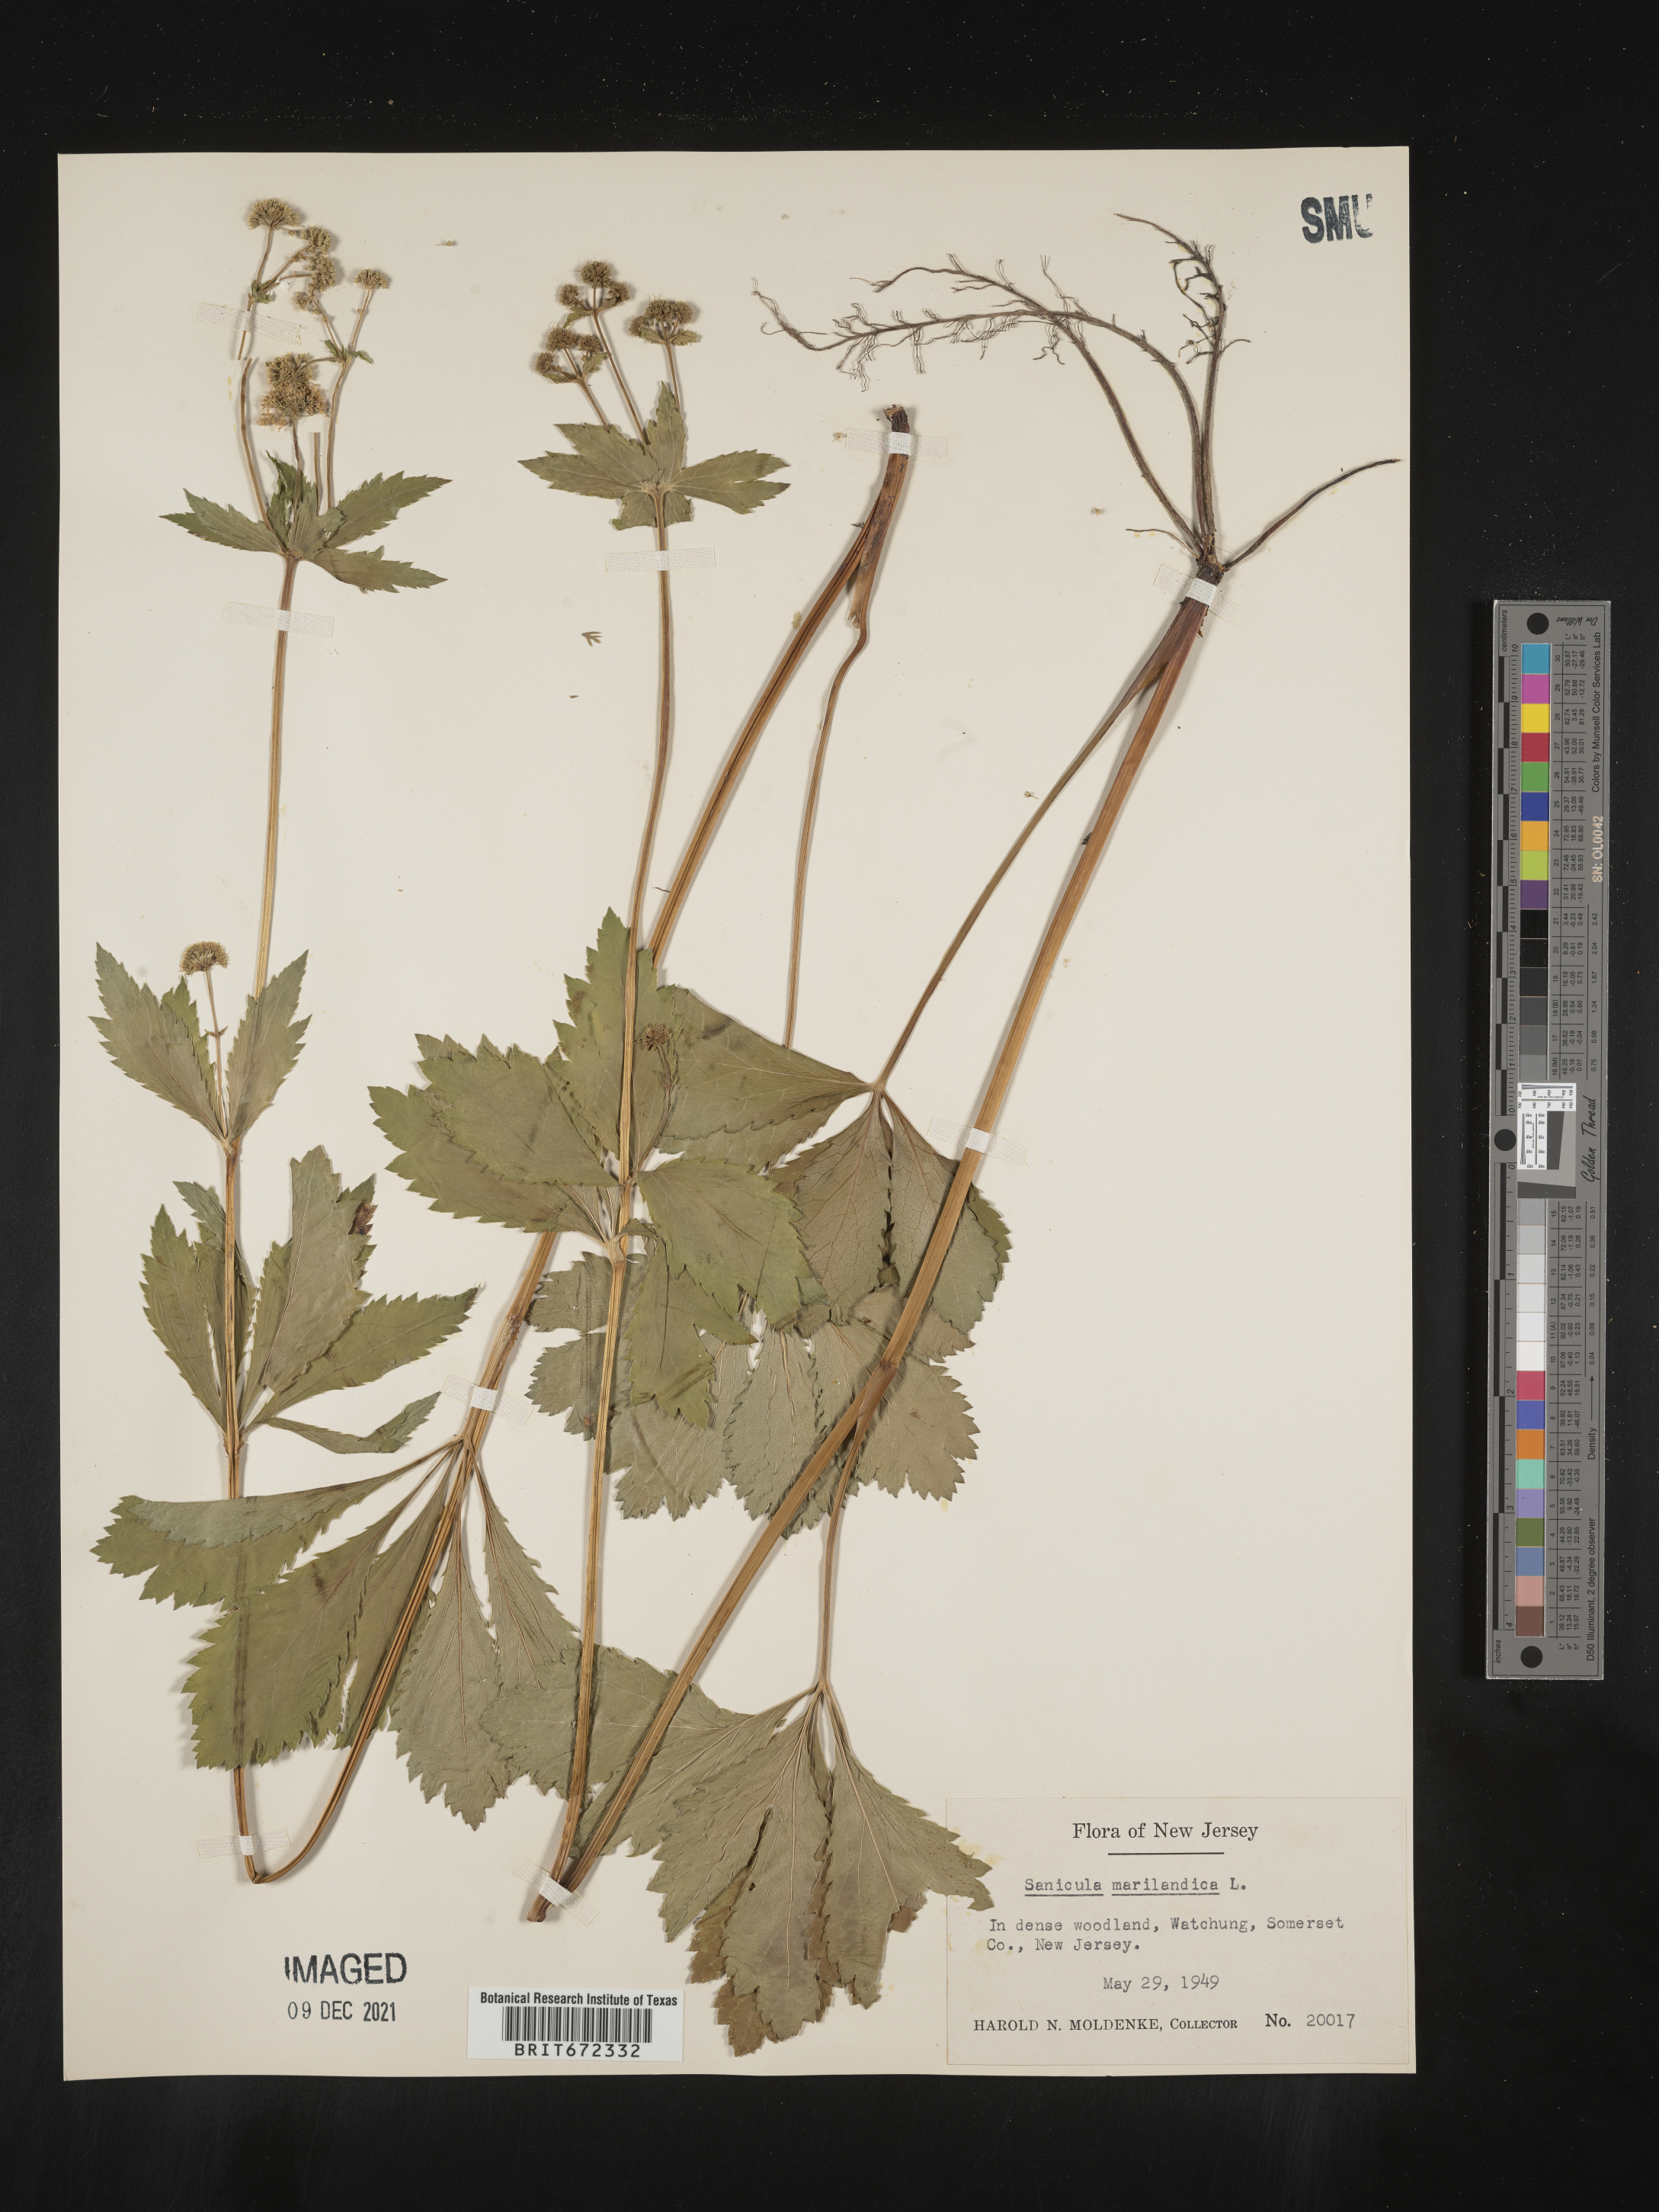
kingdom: Plantae
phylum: Tracheophyta
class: Magnoliopsida
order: Apiales
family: Apiaceae
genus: Sanicula
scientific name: Sanicula marilandica
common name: Black snakeroot
